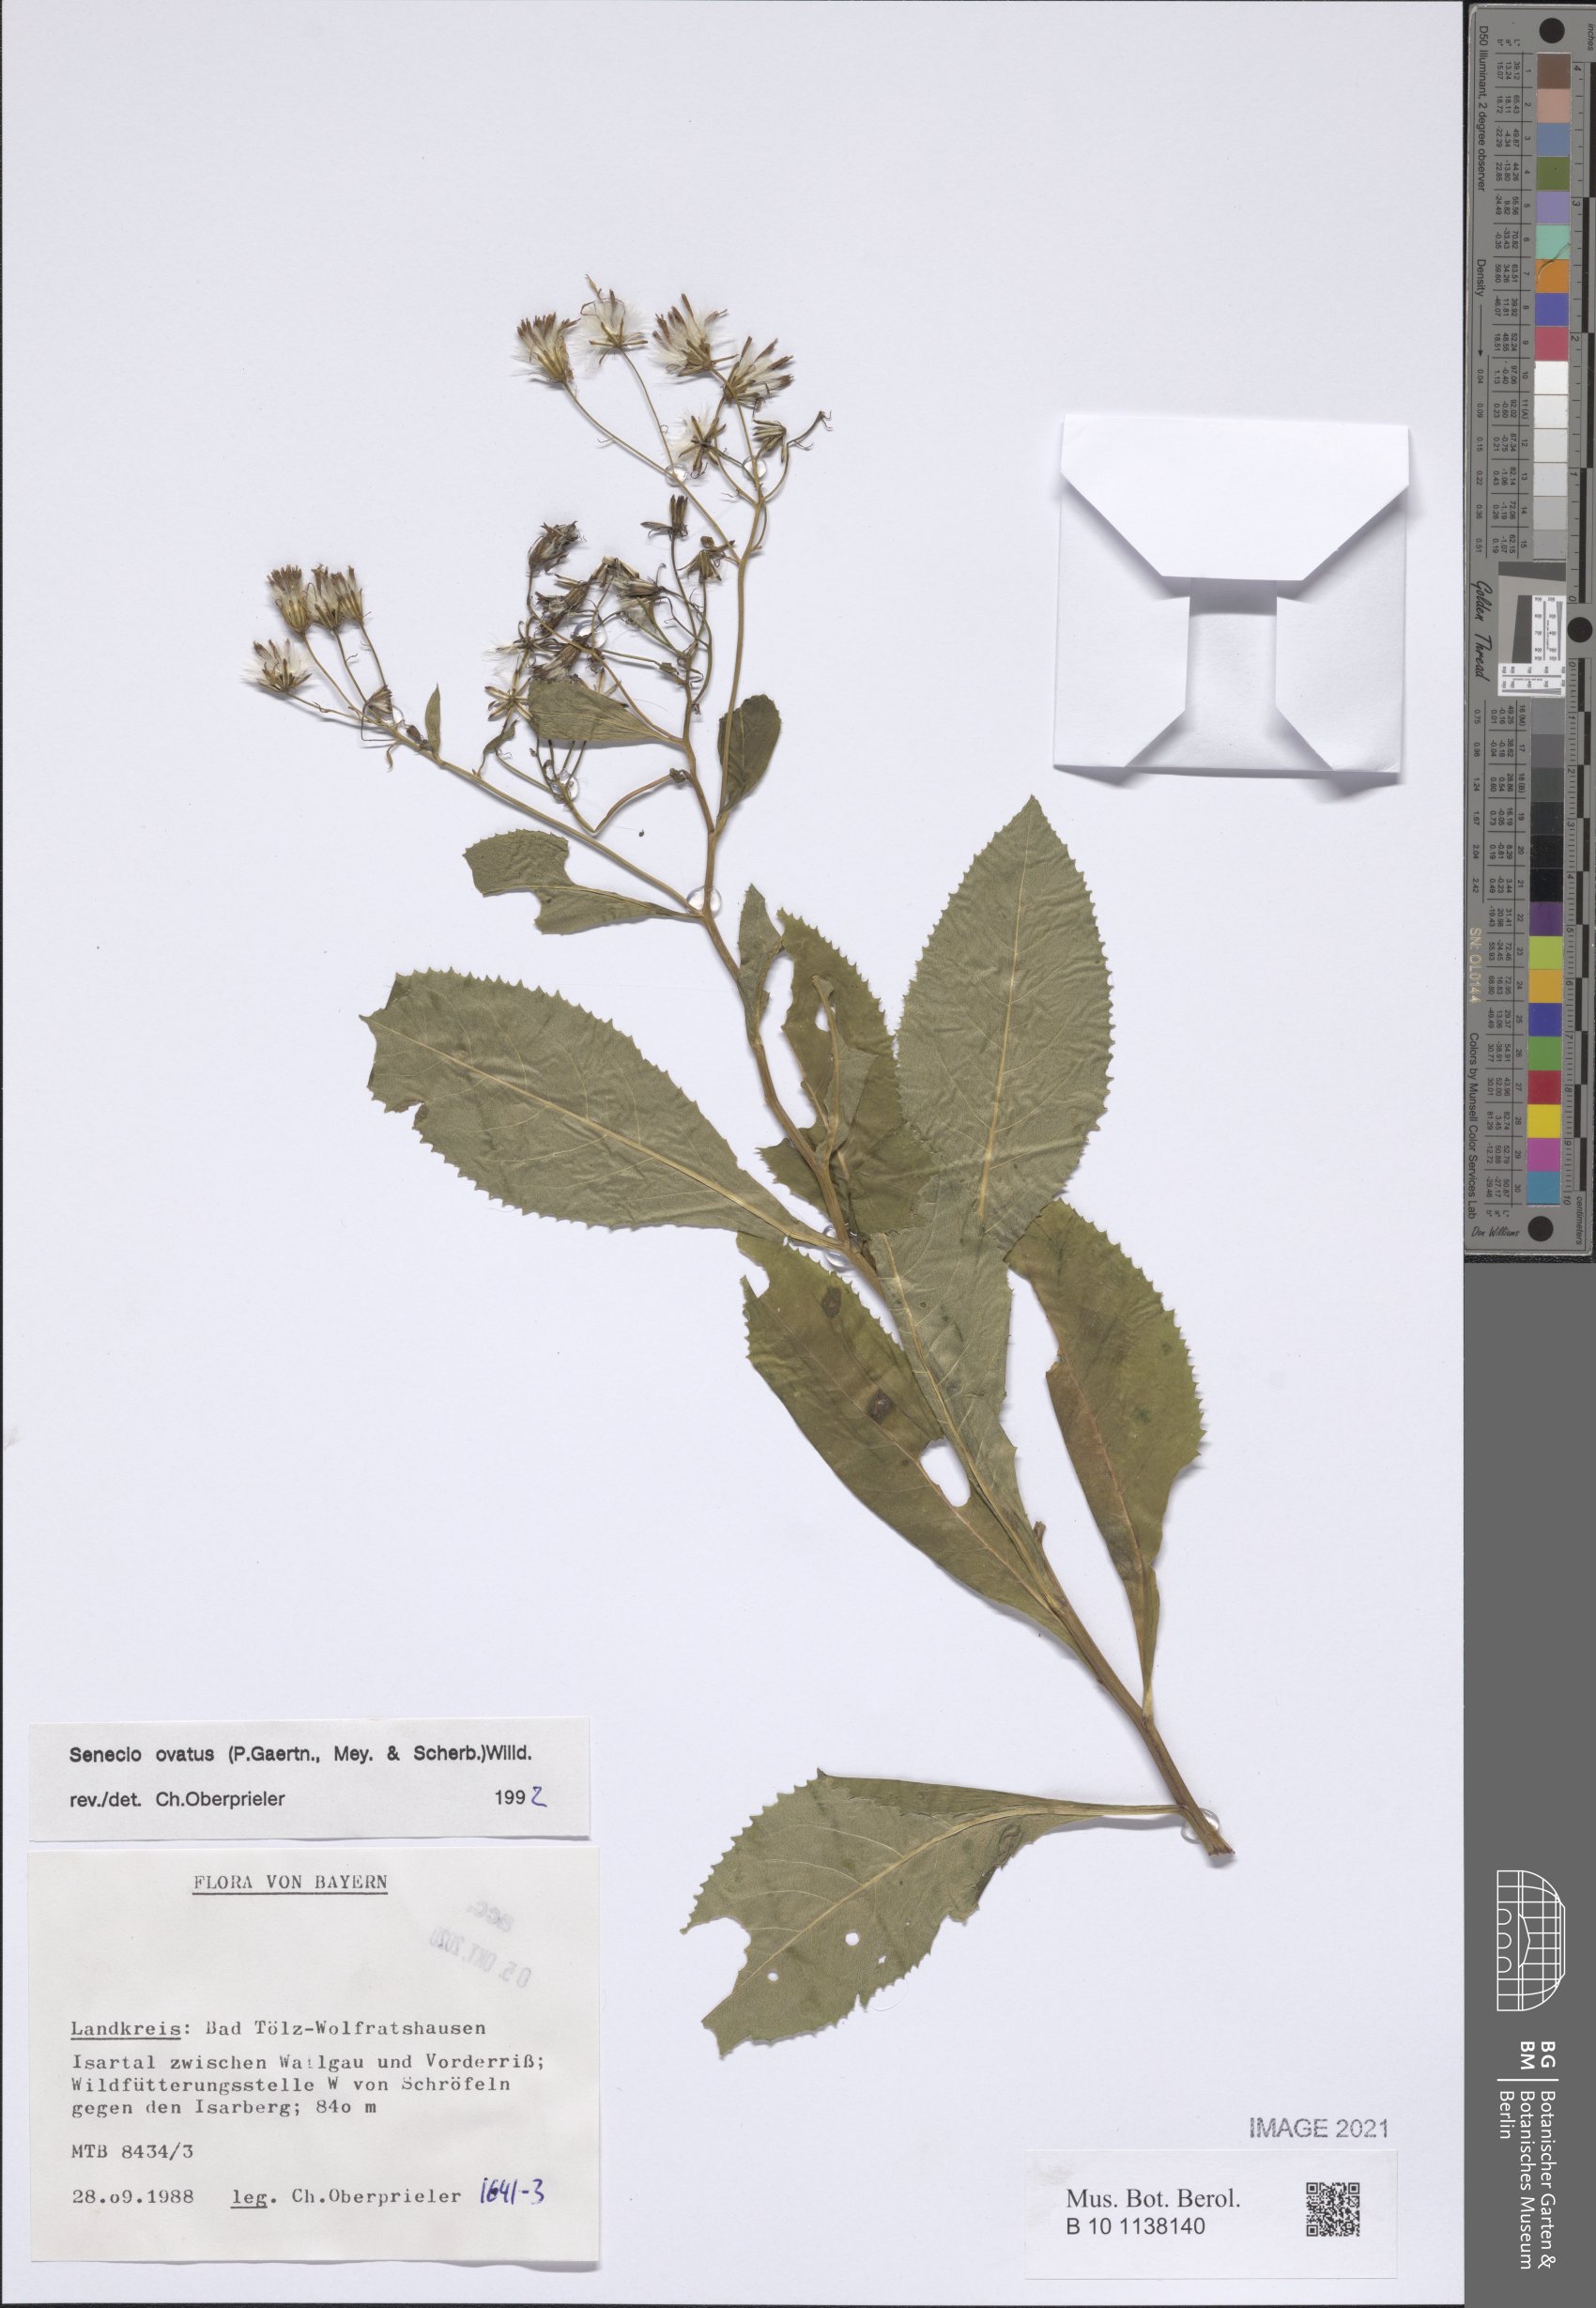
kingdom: Plantae
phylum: Tracheophyta
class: Magnoliopsida
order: Asterales
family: Asteraceae
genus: Senecio
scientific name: Senecio ovatus
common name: Wood ragwort
